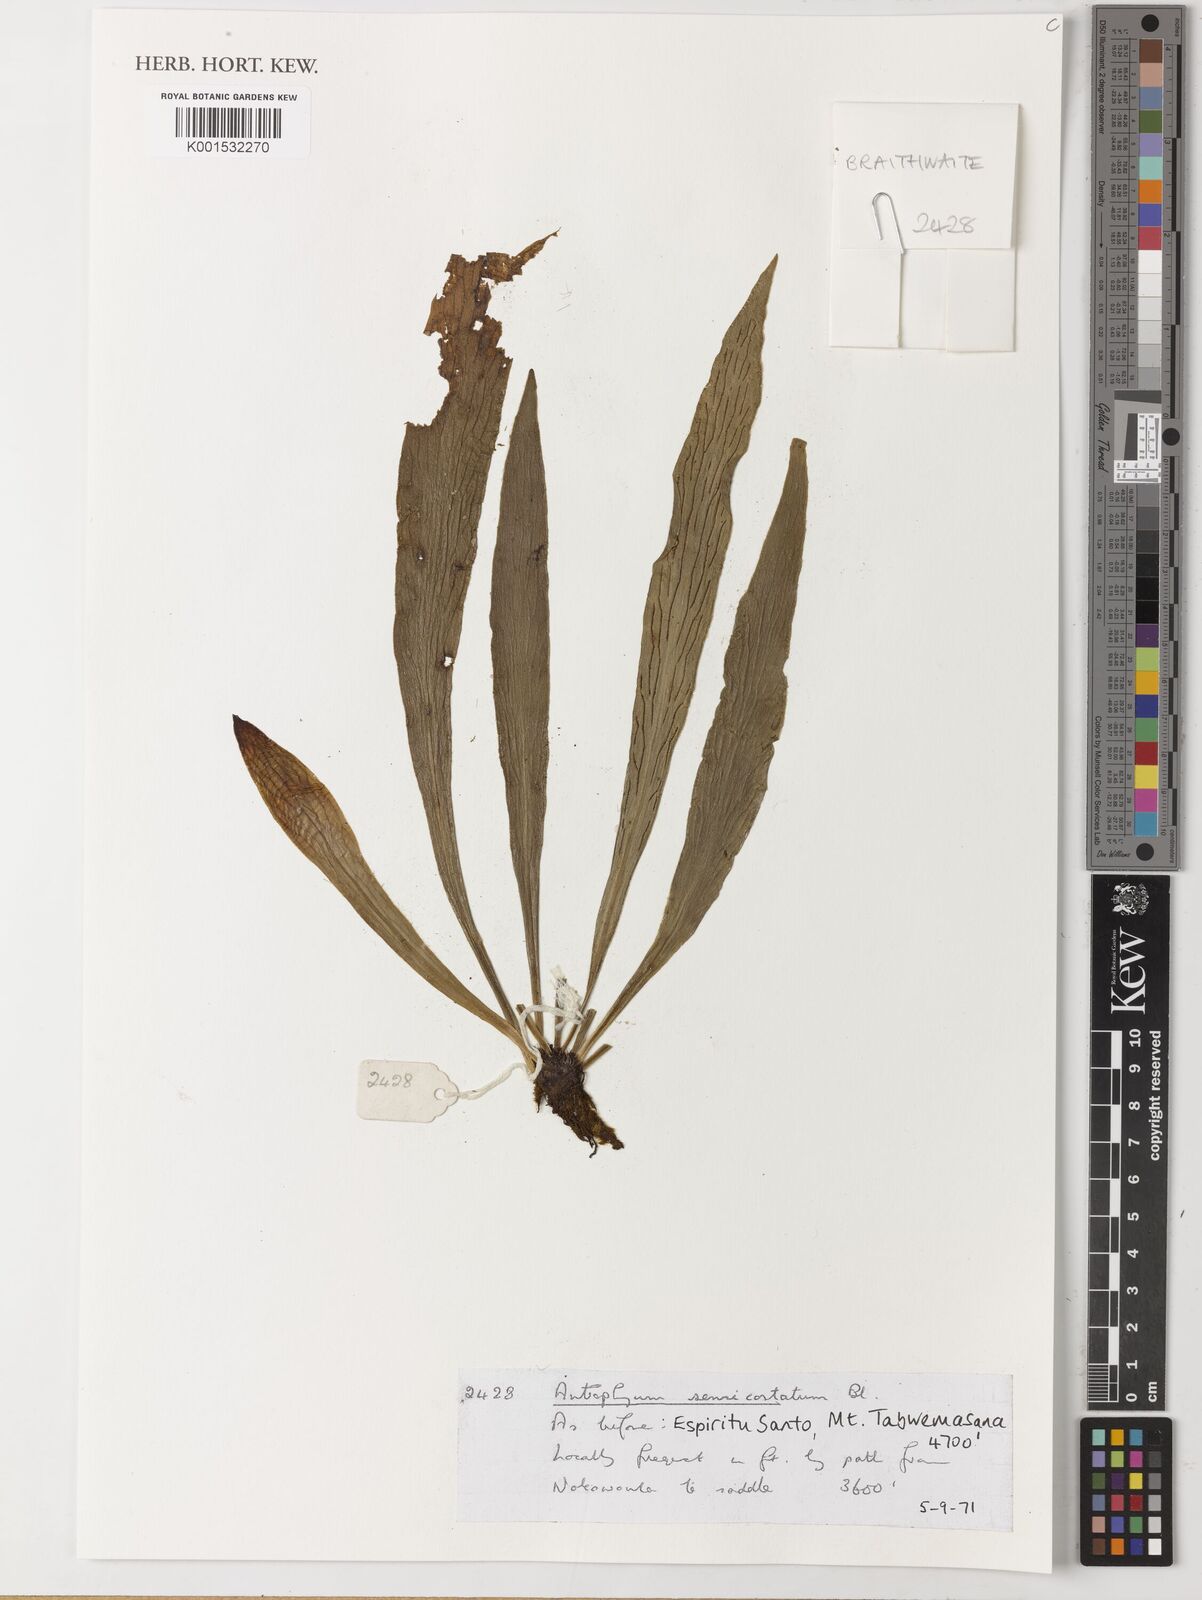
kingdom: Plantae
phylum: Tracheophyta
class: Polypodiopsida
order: Polypodiales
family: Pteridaceae
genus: Antrophyum
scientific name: Antrophyum semicostatum
